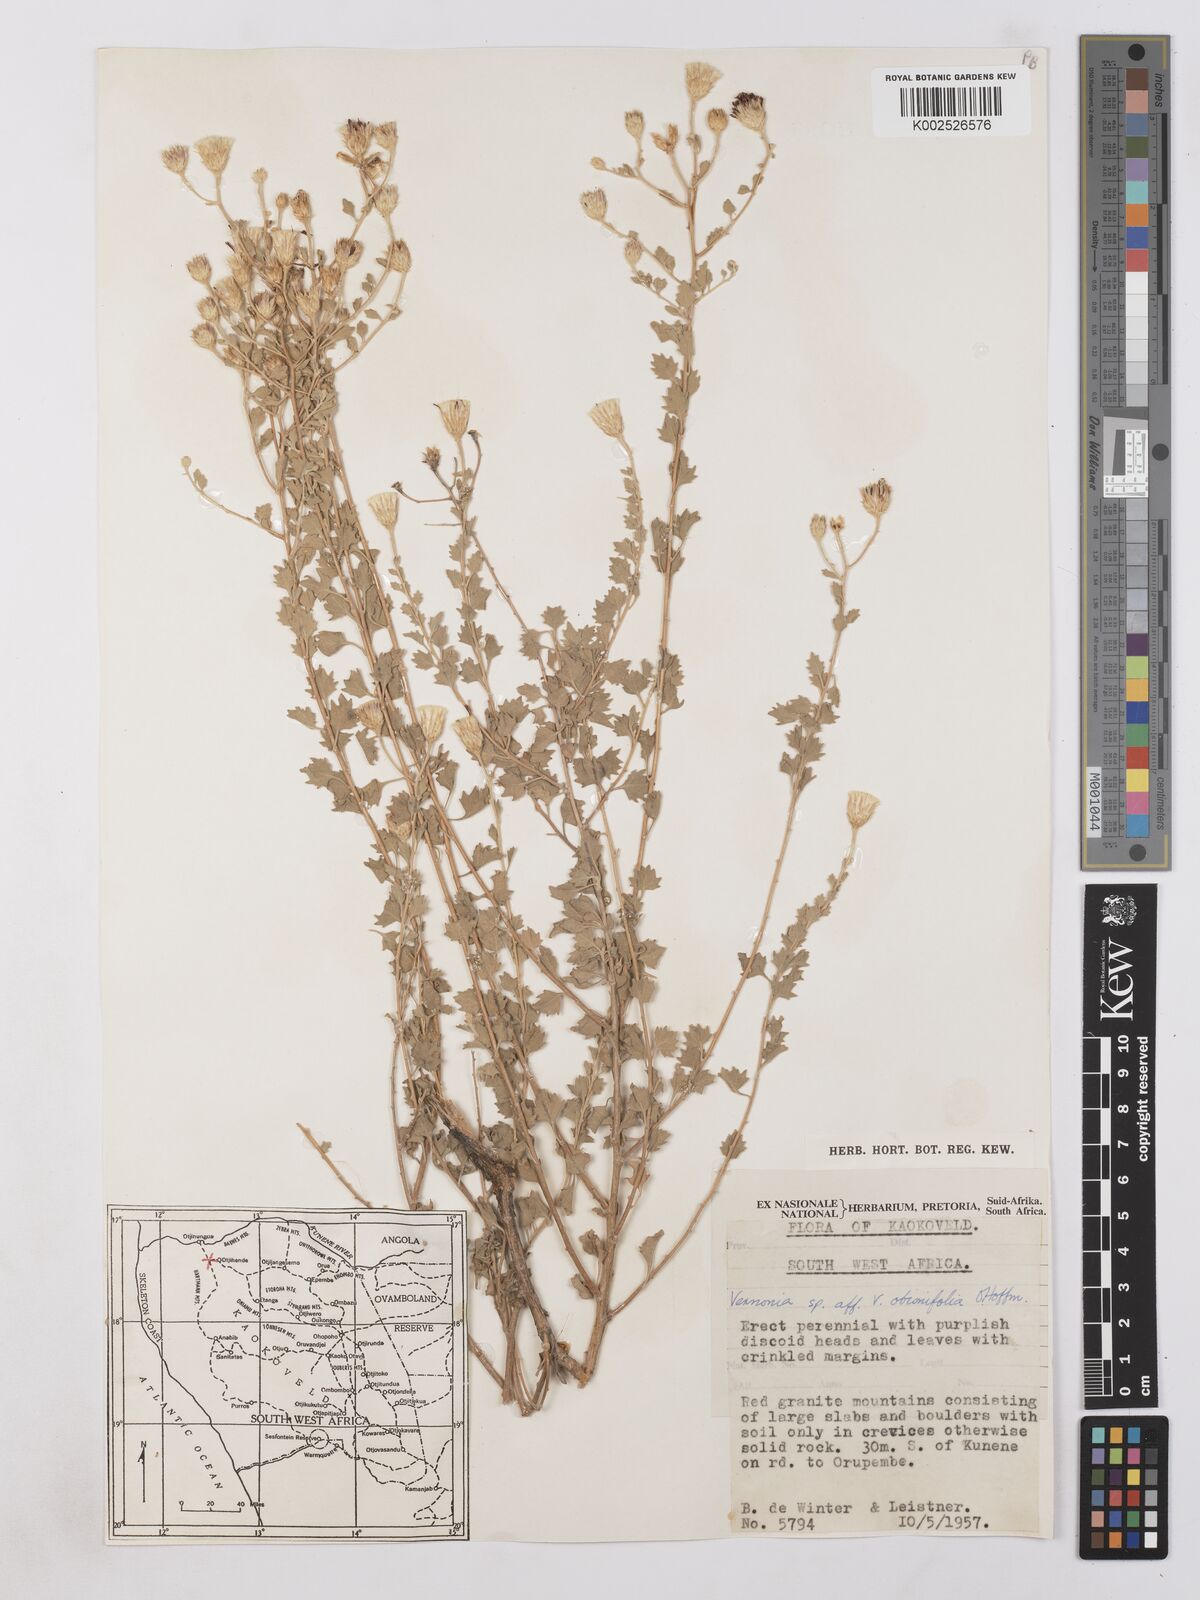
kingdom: Plantae
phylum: Tracheophyta
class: Magnoliopsida
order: Asterales
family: Asteraceae
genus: Namibithamnus
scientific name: Namibithamnus obionifolius
